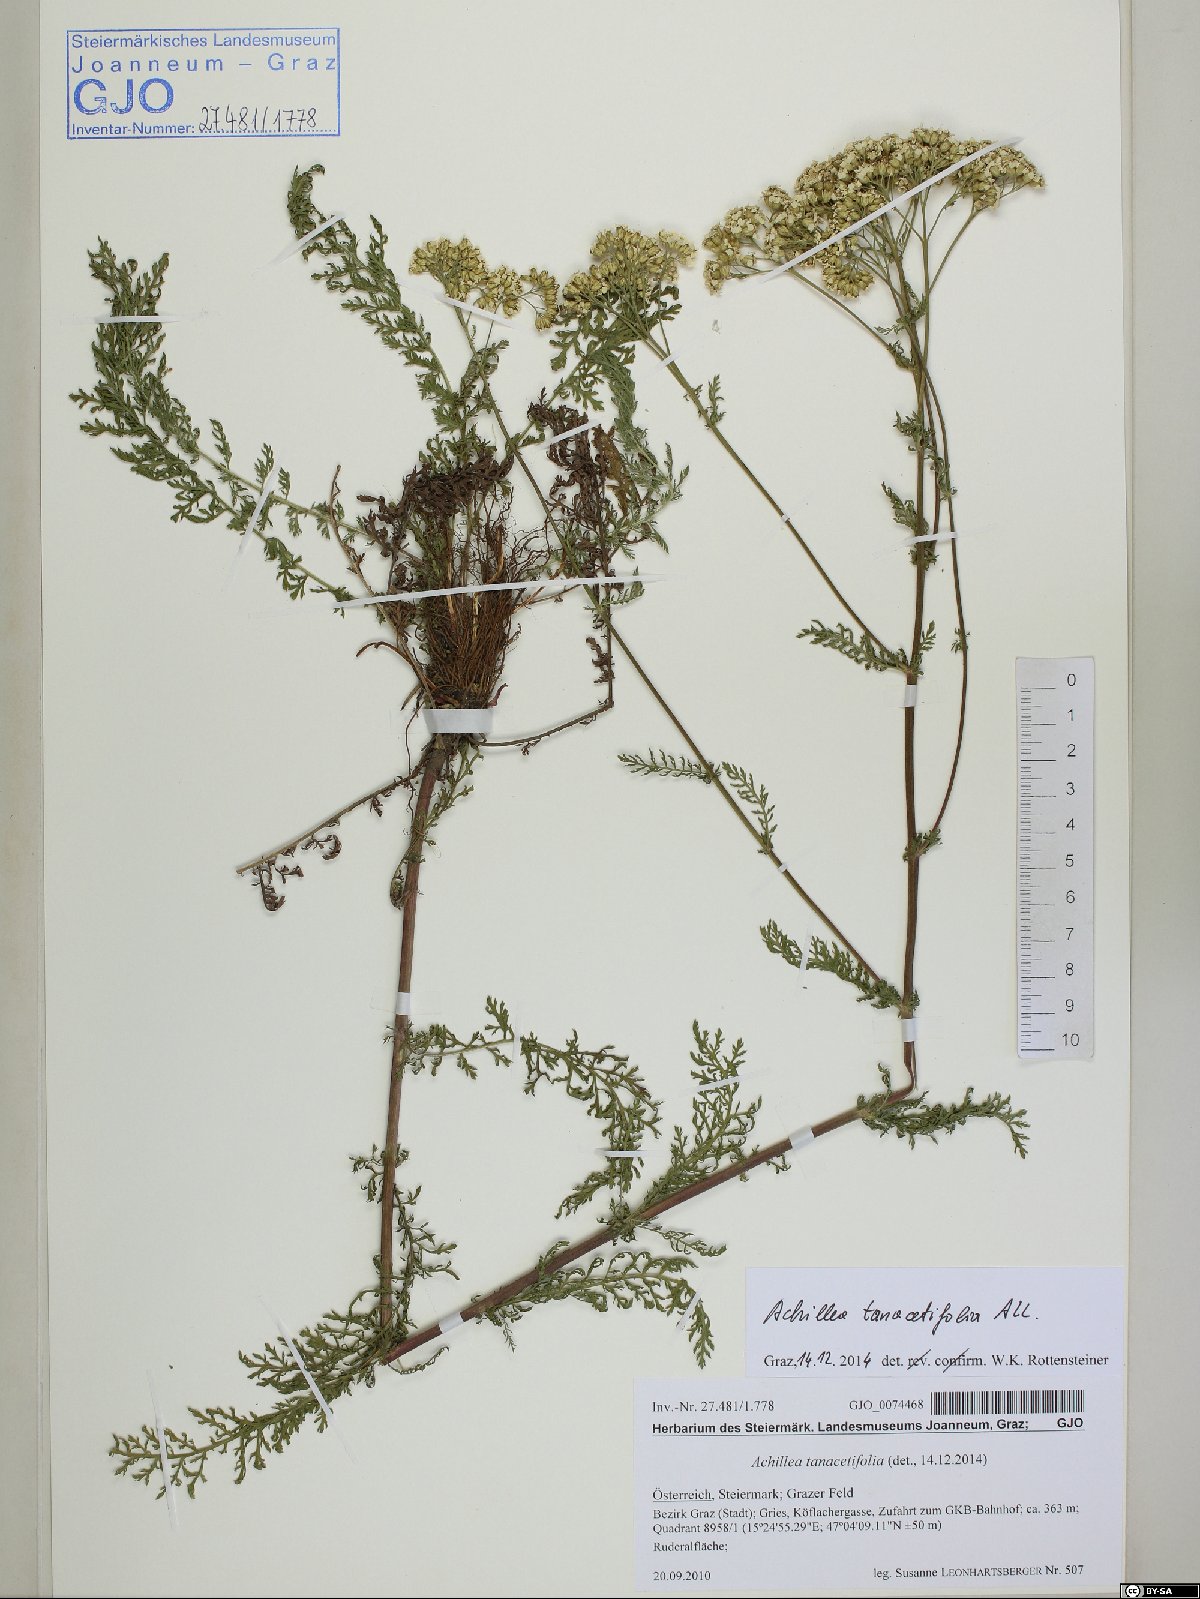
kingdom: Plantae
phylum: Tracheophyta
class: Magnoliopsida
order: Asterales
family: Asteraceae
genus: Achillea
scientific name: Achillea distans
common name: Tall yarrow
